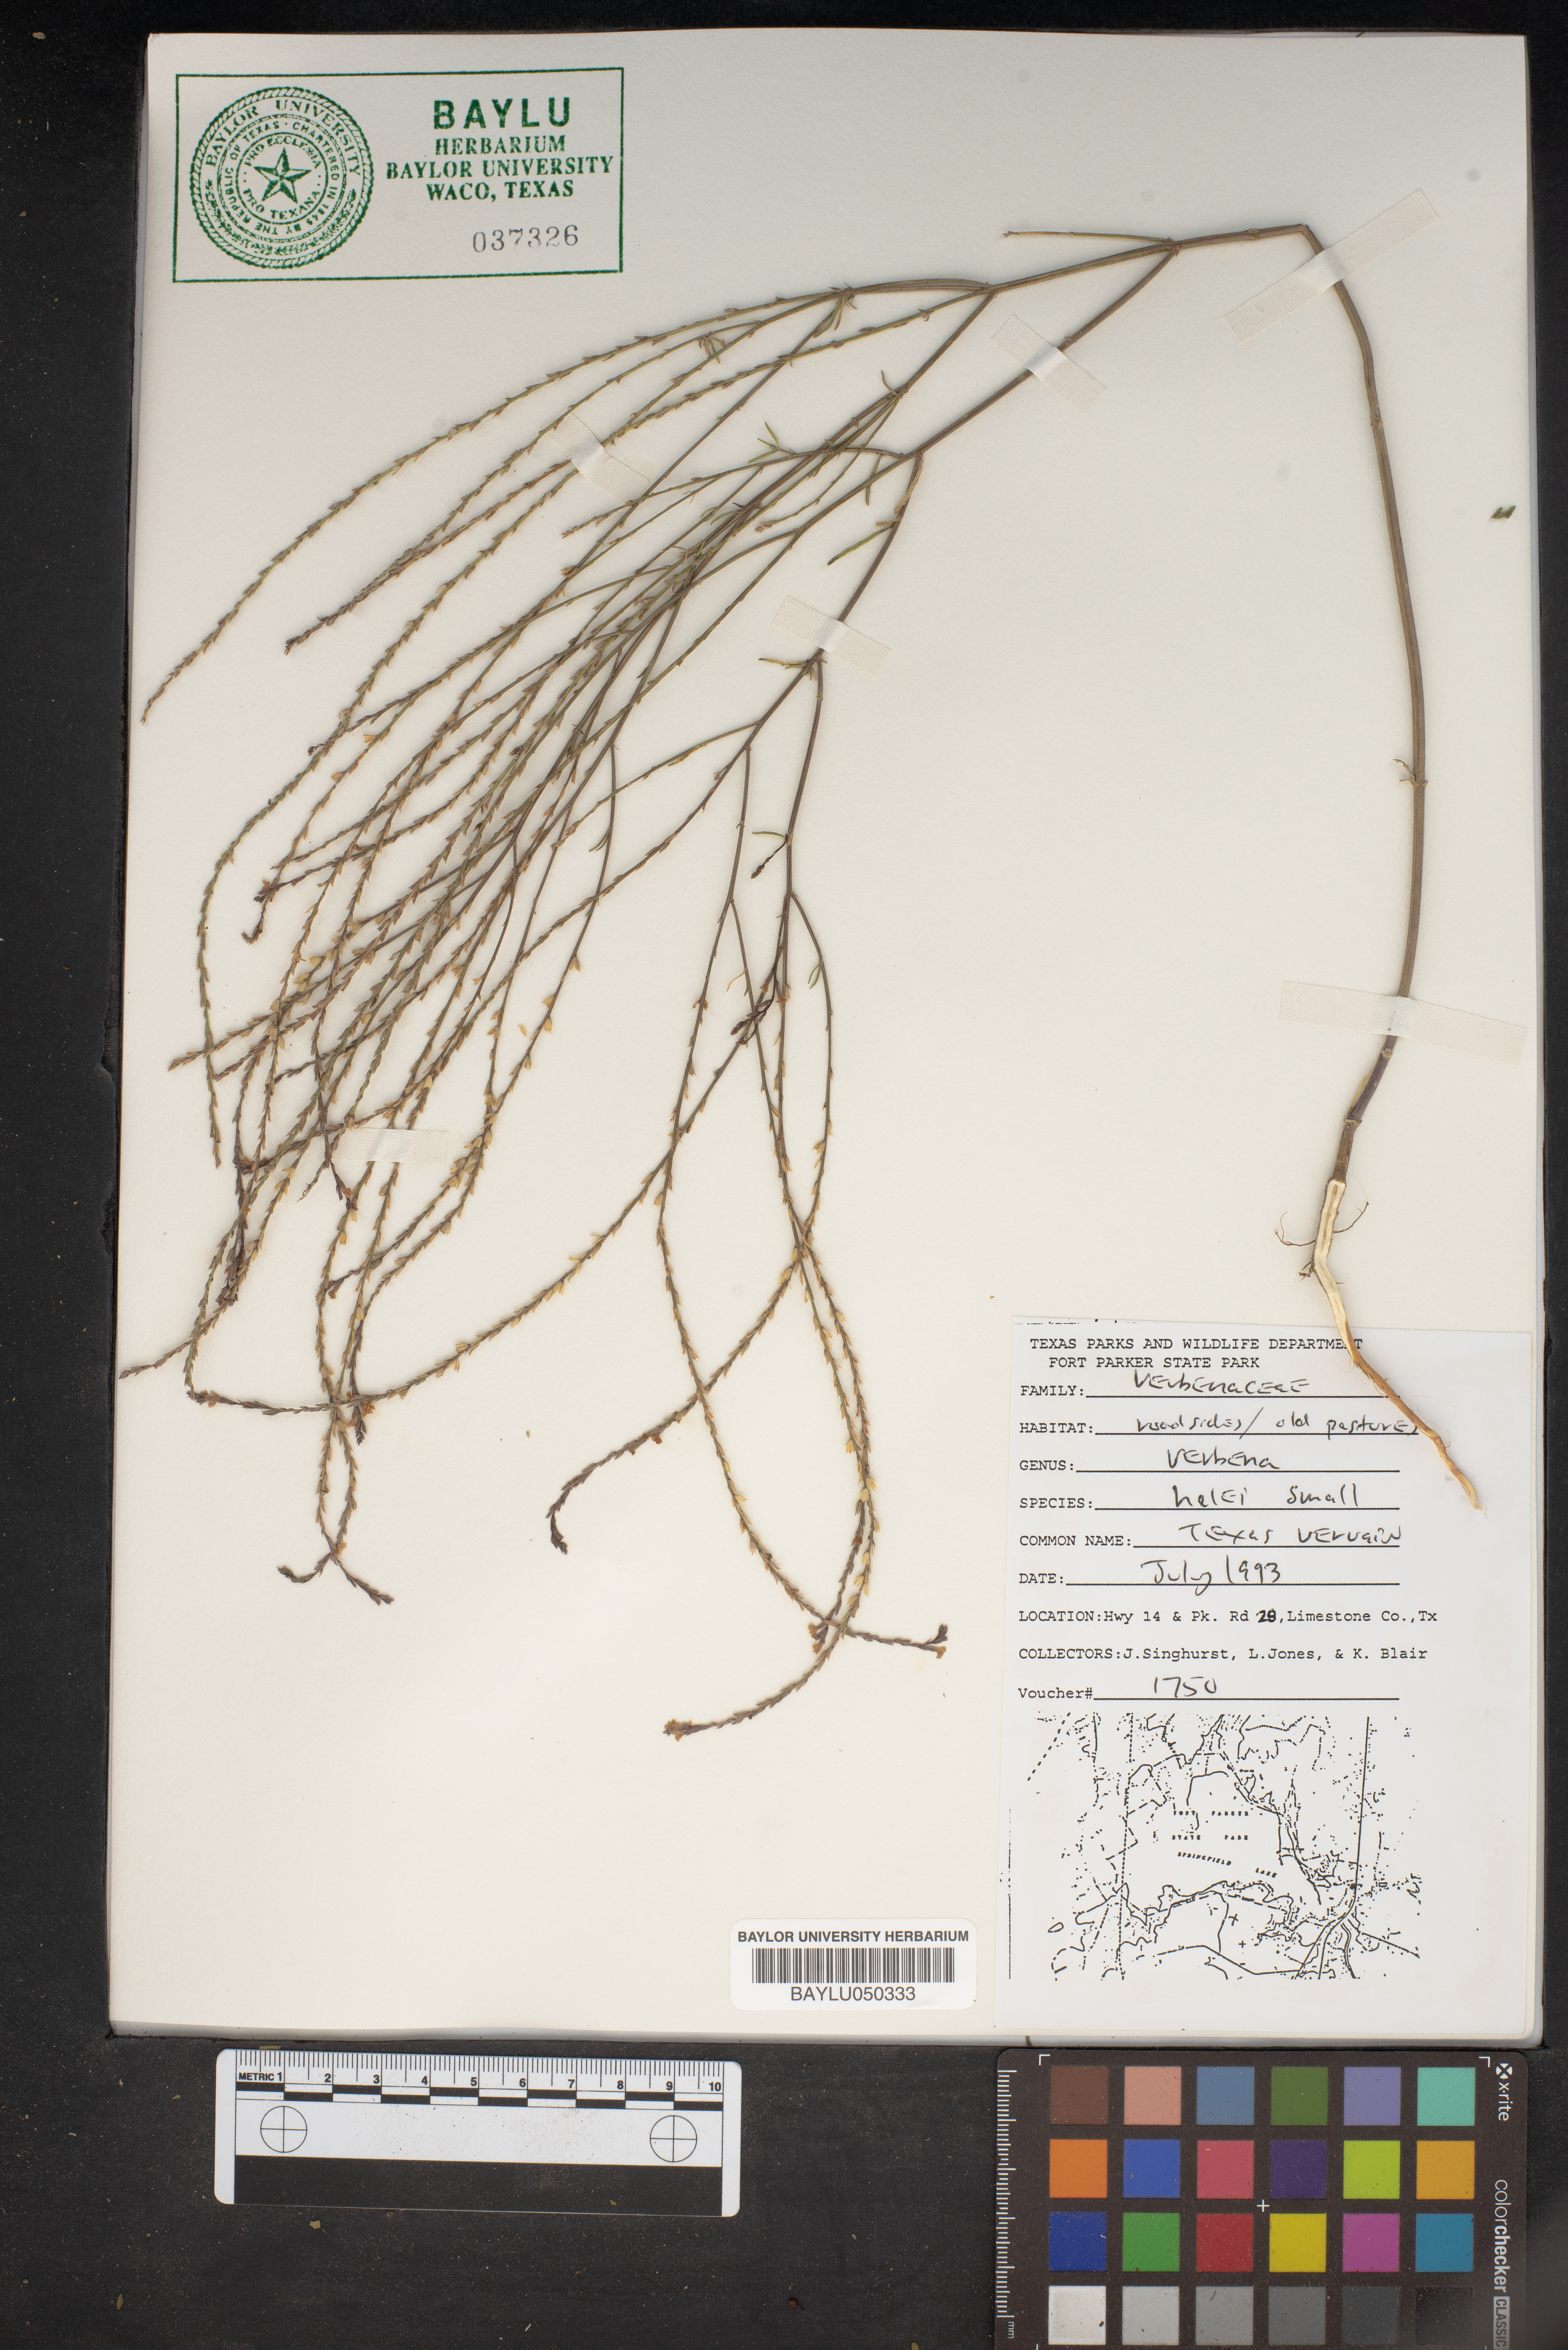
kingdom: Plantae
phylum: Tracheophyta
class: Magnoliopsida
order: Lamiales
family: Verbenaceae
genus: Verbena
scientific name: Verbena halei
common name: Texas vervain
